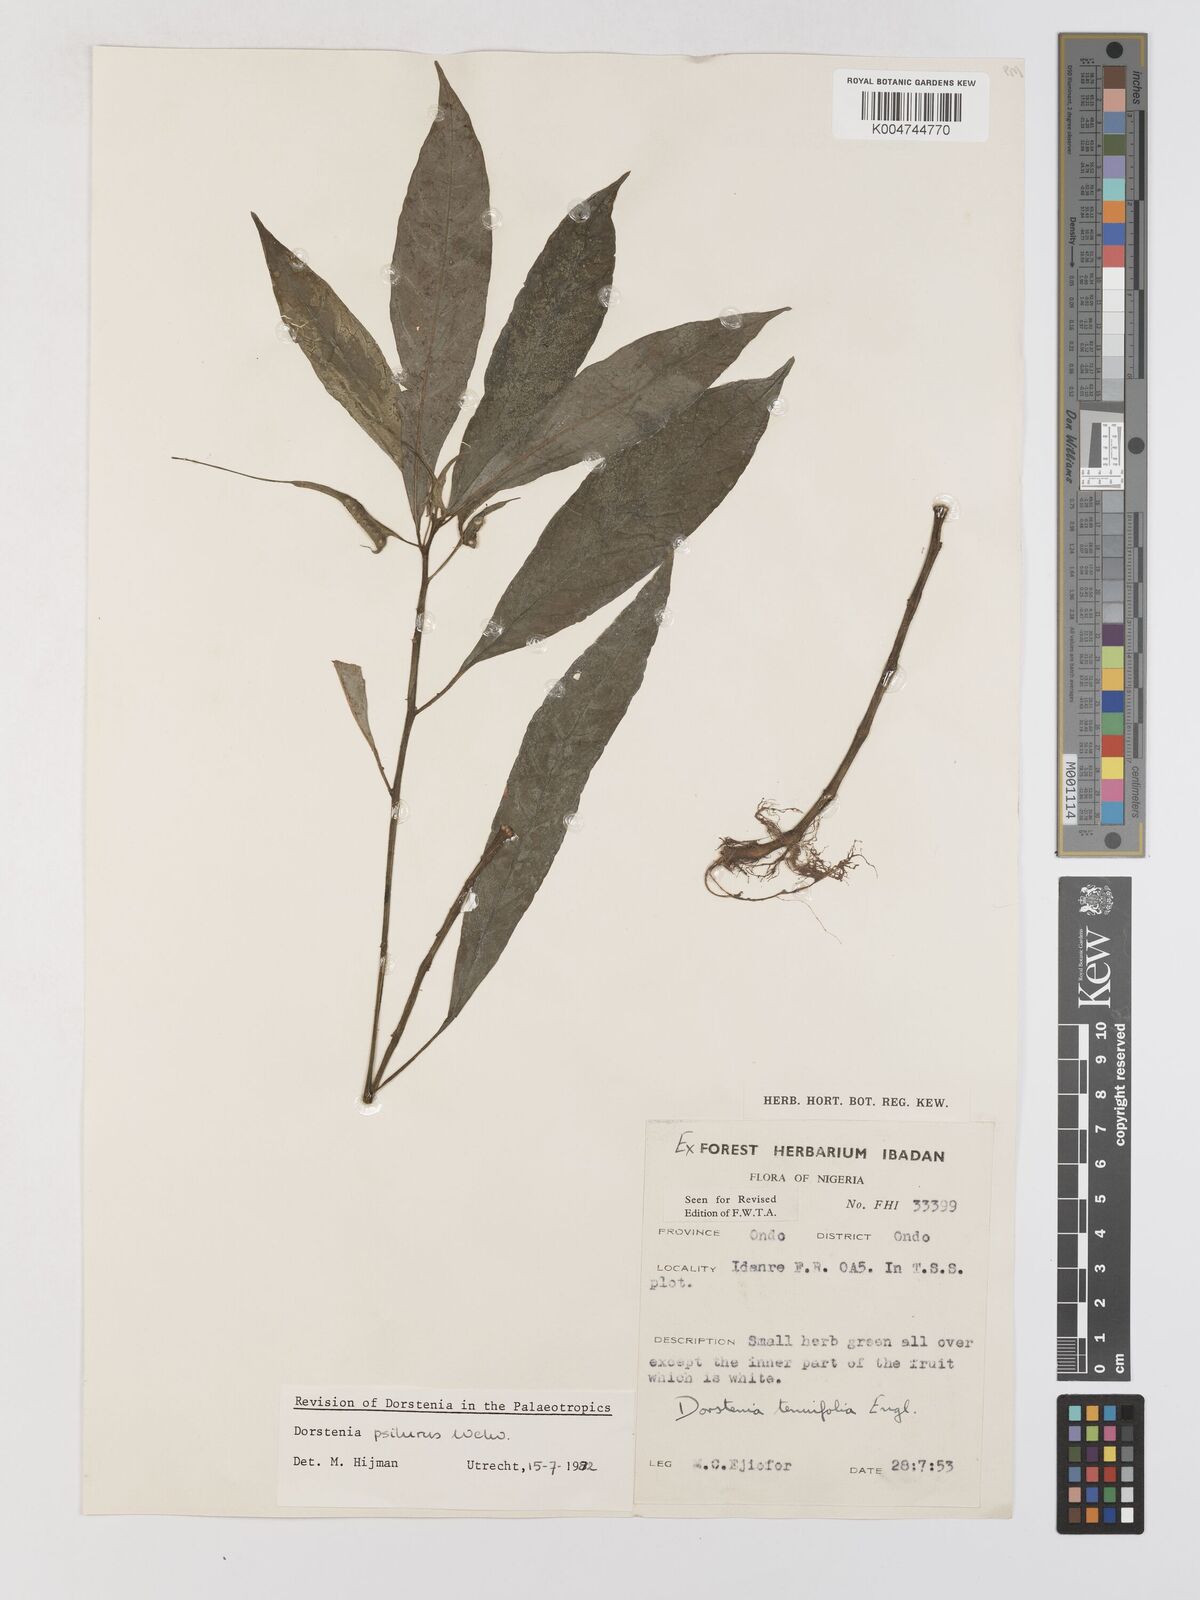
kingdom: Plantae
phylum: Tracheophyta
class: Magnoliopsida
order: Rosales
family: Moraceae
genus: Dorstenia
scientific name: Dorstenia psilurus
